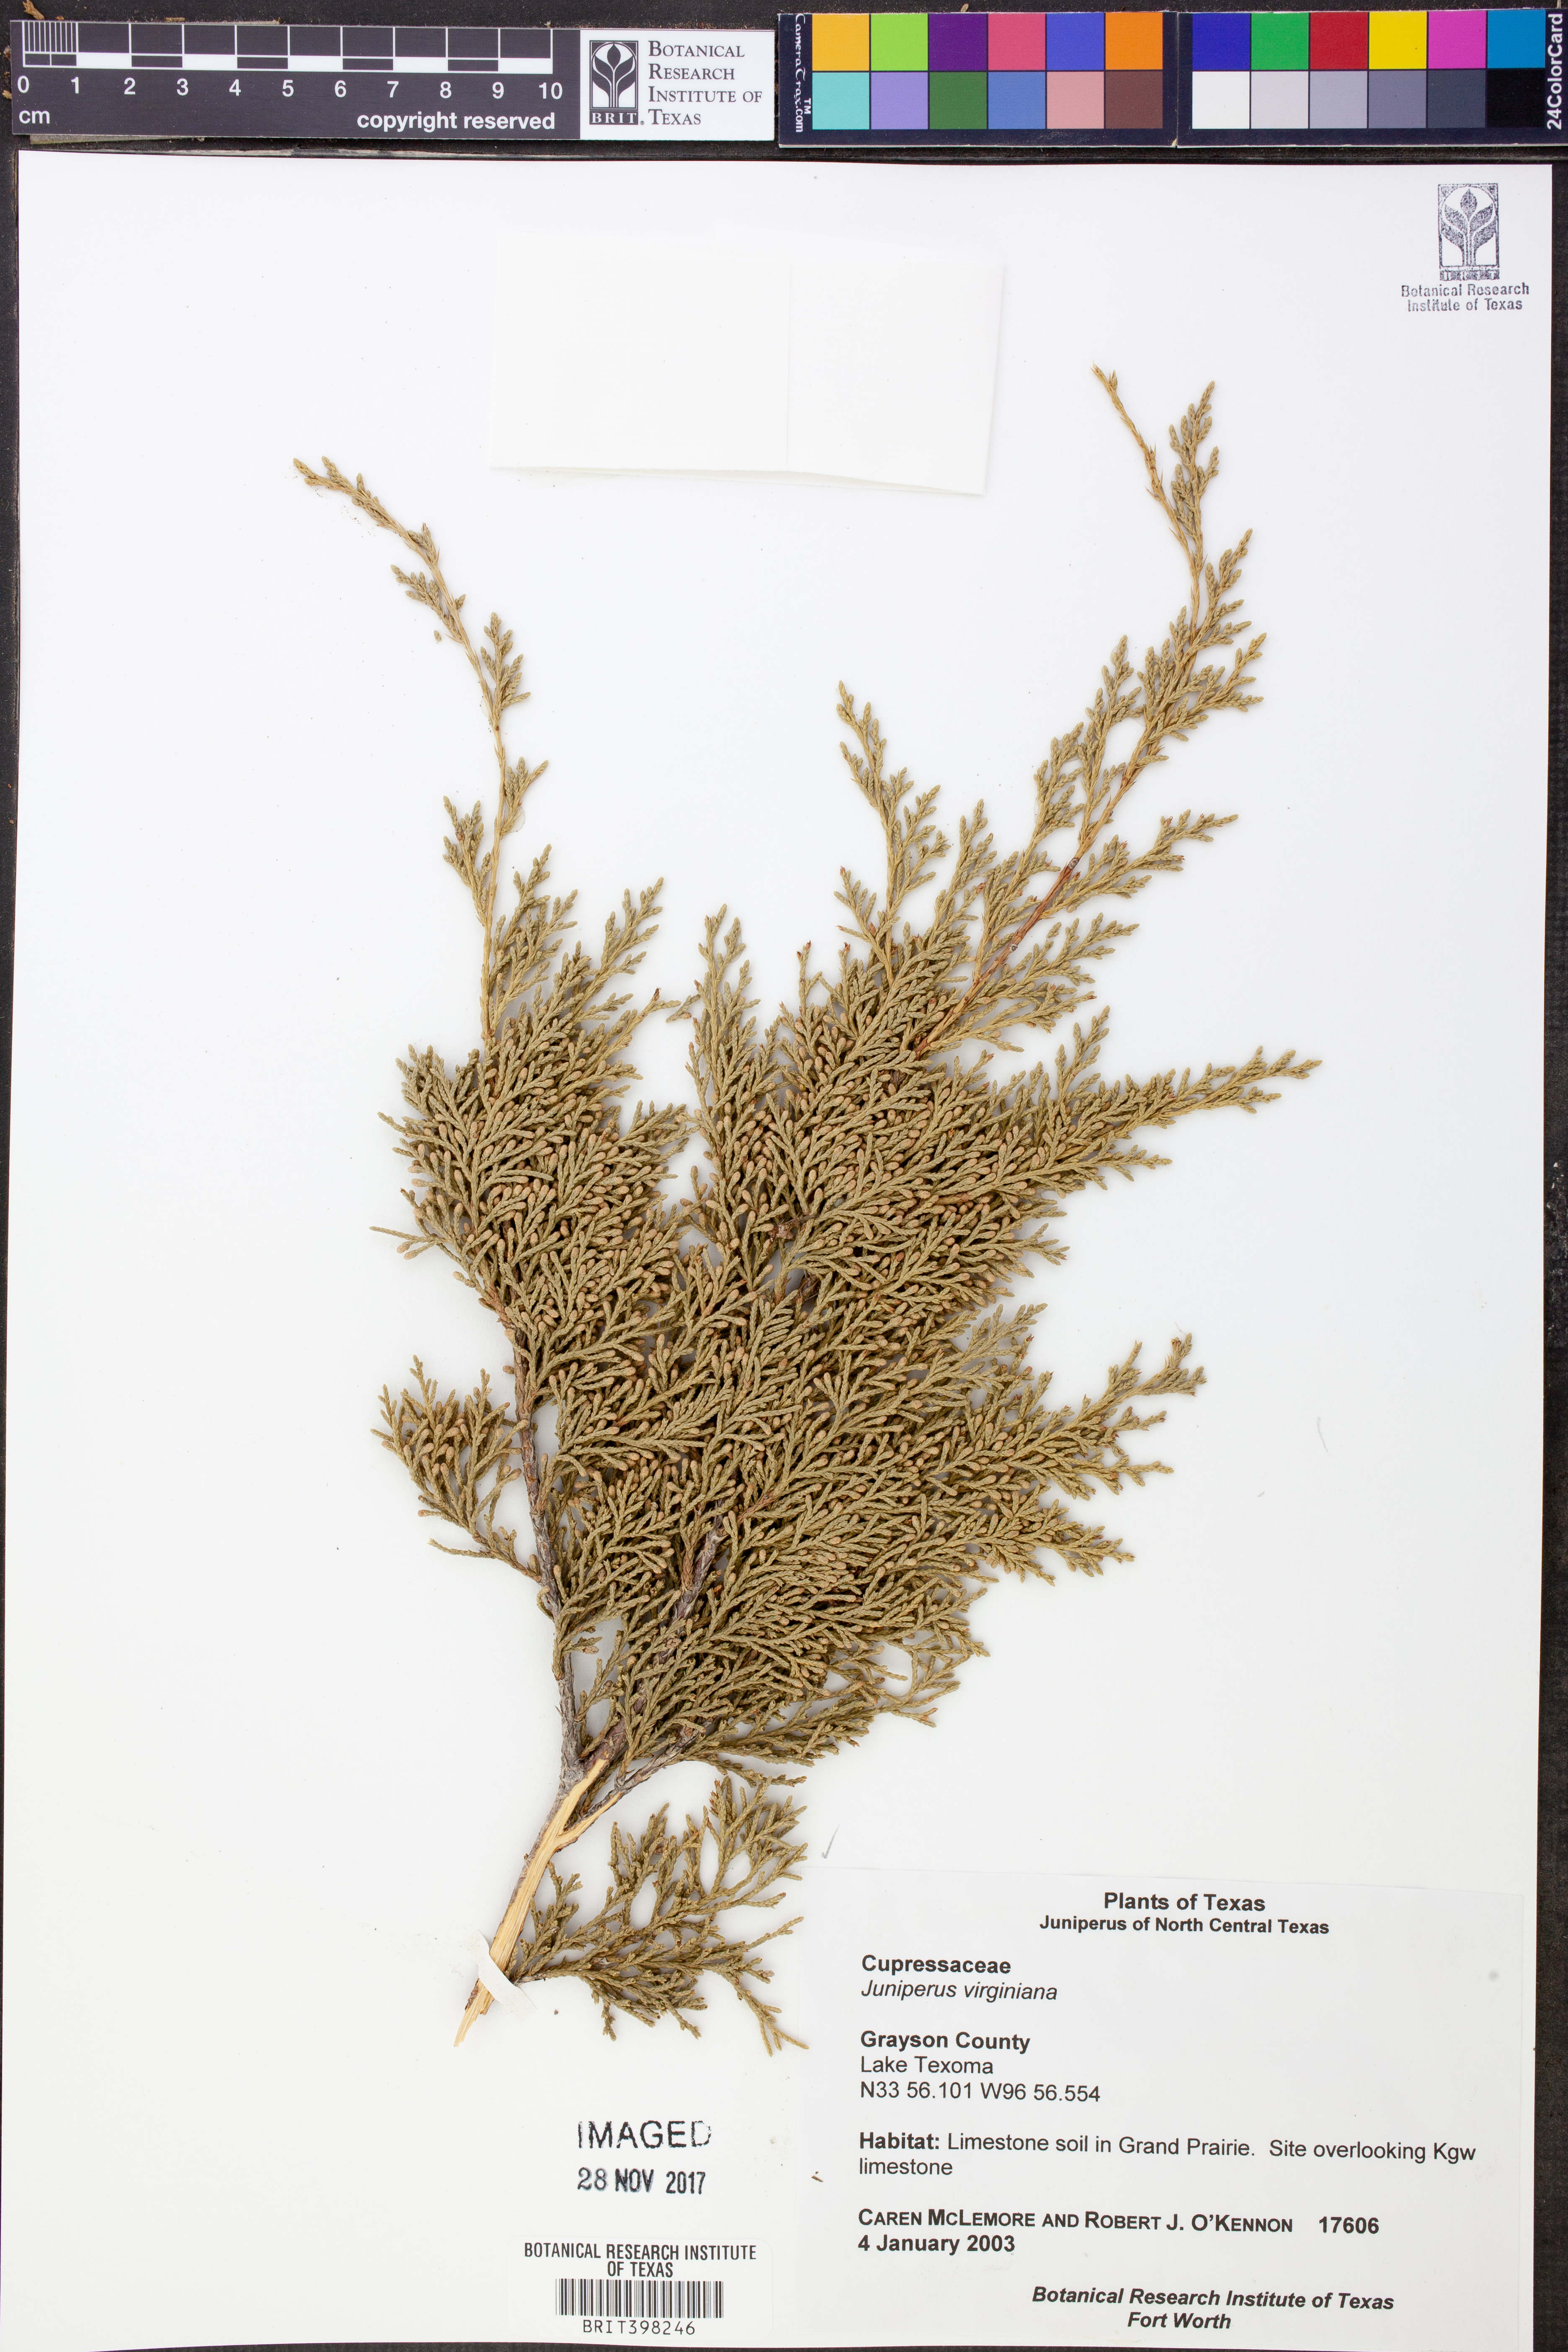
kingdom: Plantae
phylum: Tracheophyta
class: Pinopsida
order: Pinales
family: Cupressaceae
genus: Juniperus
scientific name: Juniperus virginiana
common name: Red juniper
